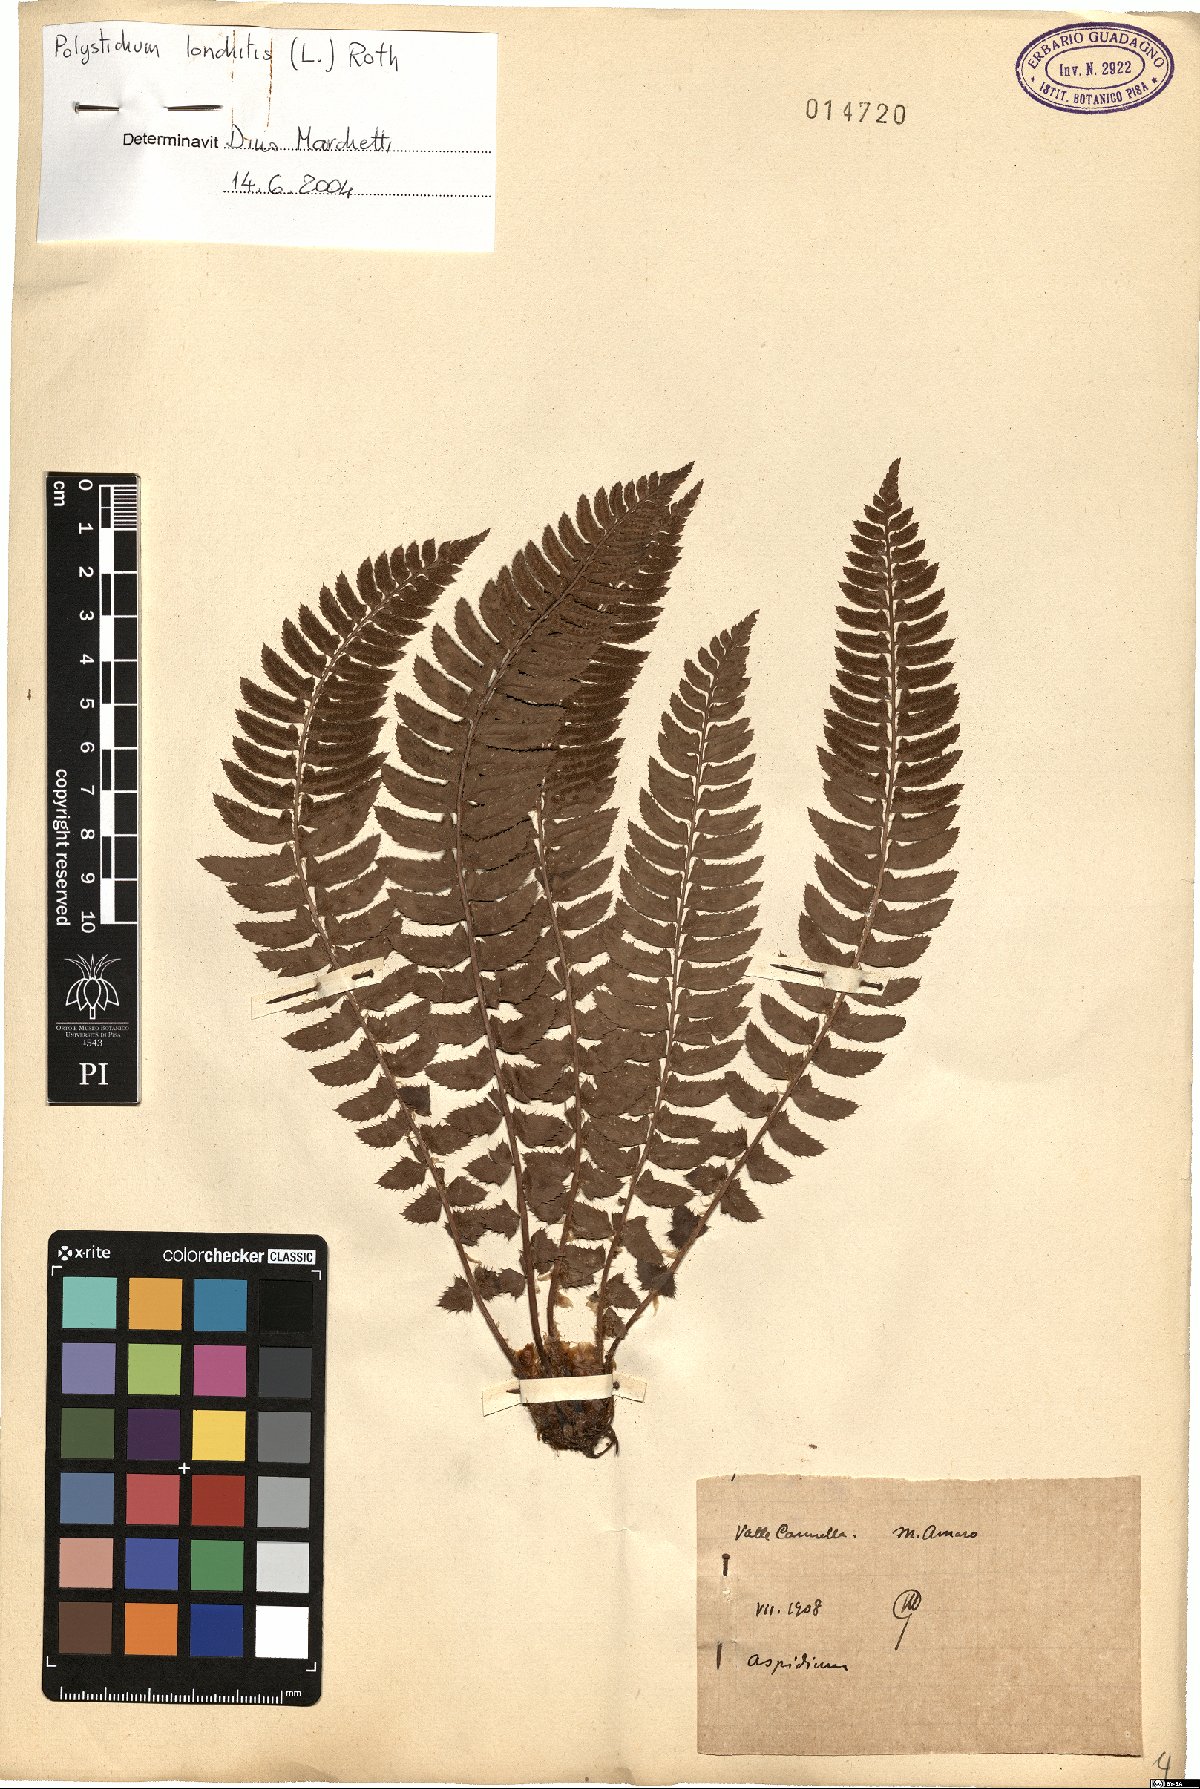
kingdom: Plantae
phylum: Tracheophyta
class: Polypodiopsida
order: Polypodiales
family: Dryopteridaceae
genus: Polystichum
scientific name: Polystichum lonchitis
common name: Holly fern
